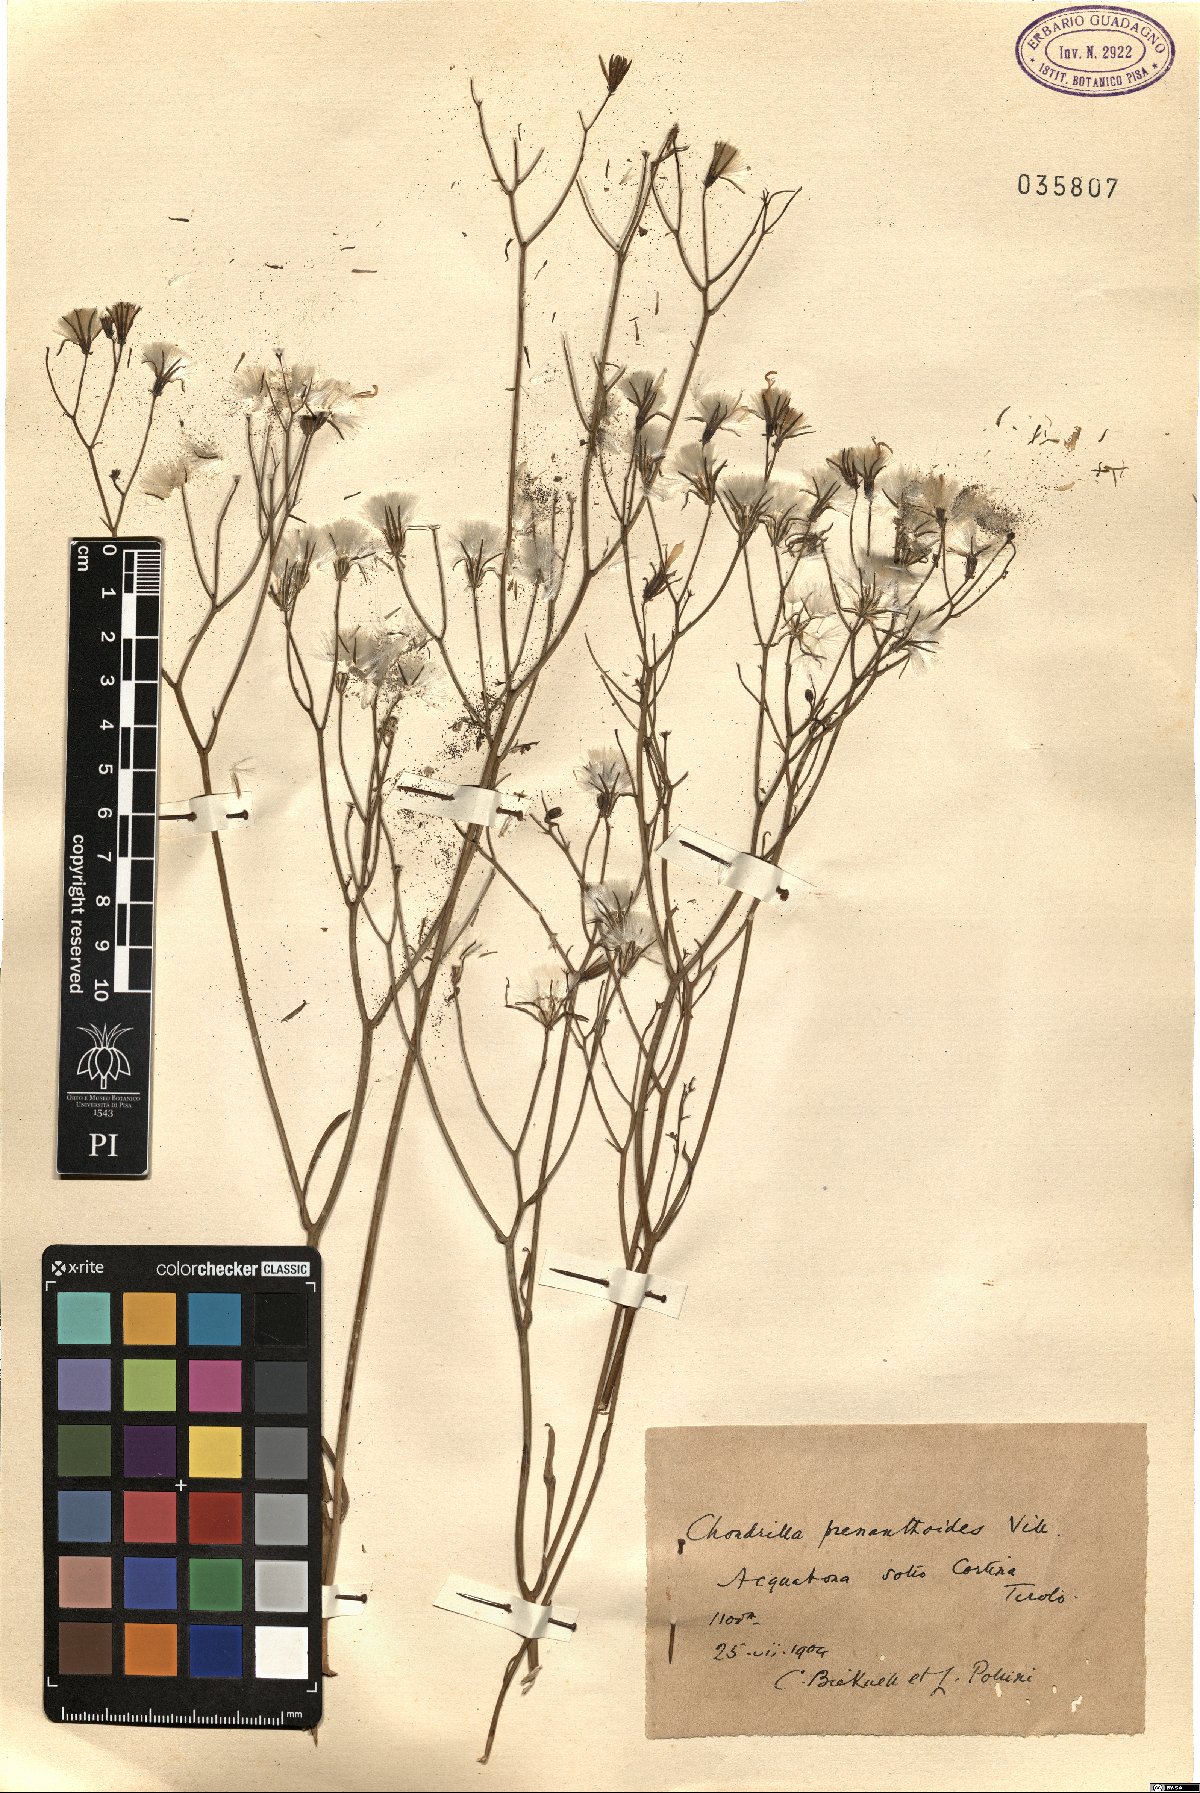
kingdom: Plantae
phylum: Tracheophyta
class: Magnoliopsida
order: Asterales
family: Asteraceae
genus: Chondrilla
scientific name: Chondrilla chondrilloides
